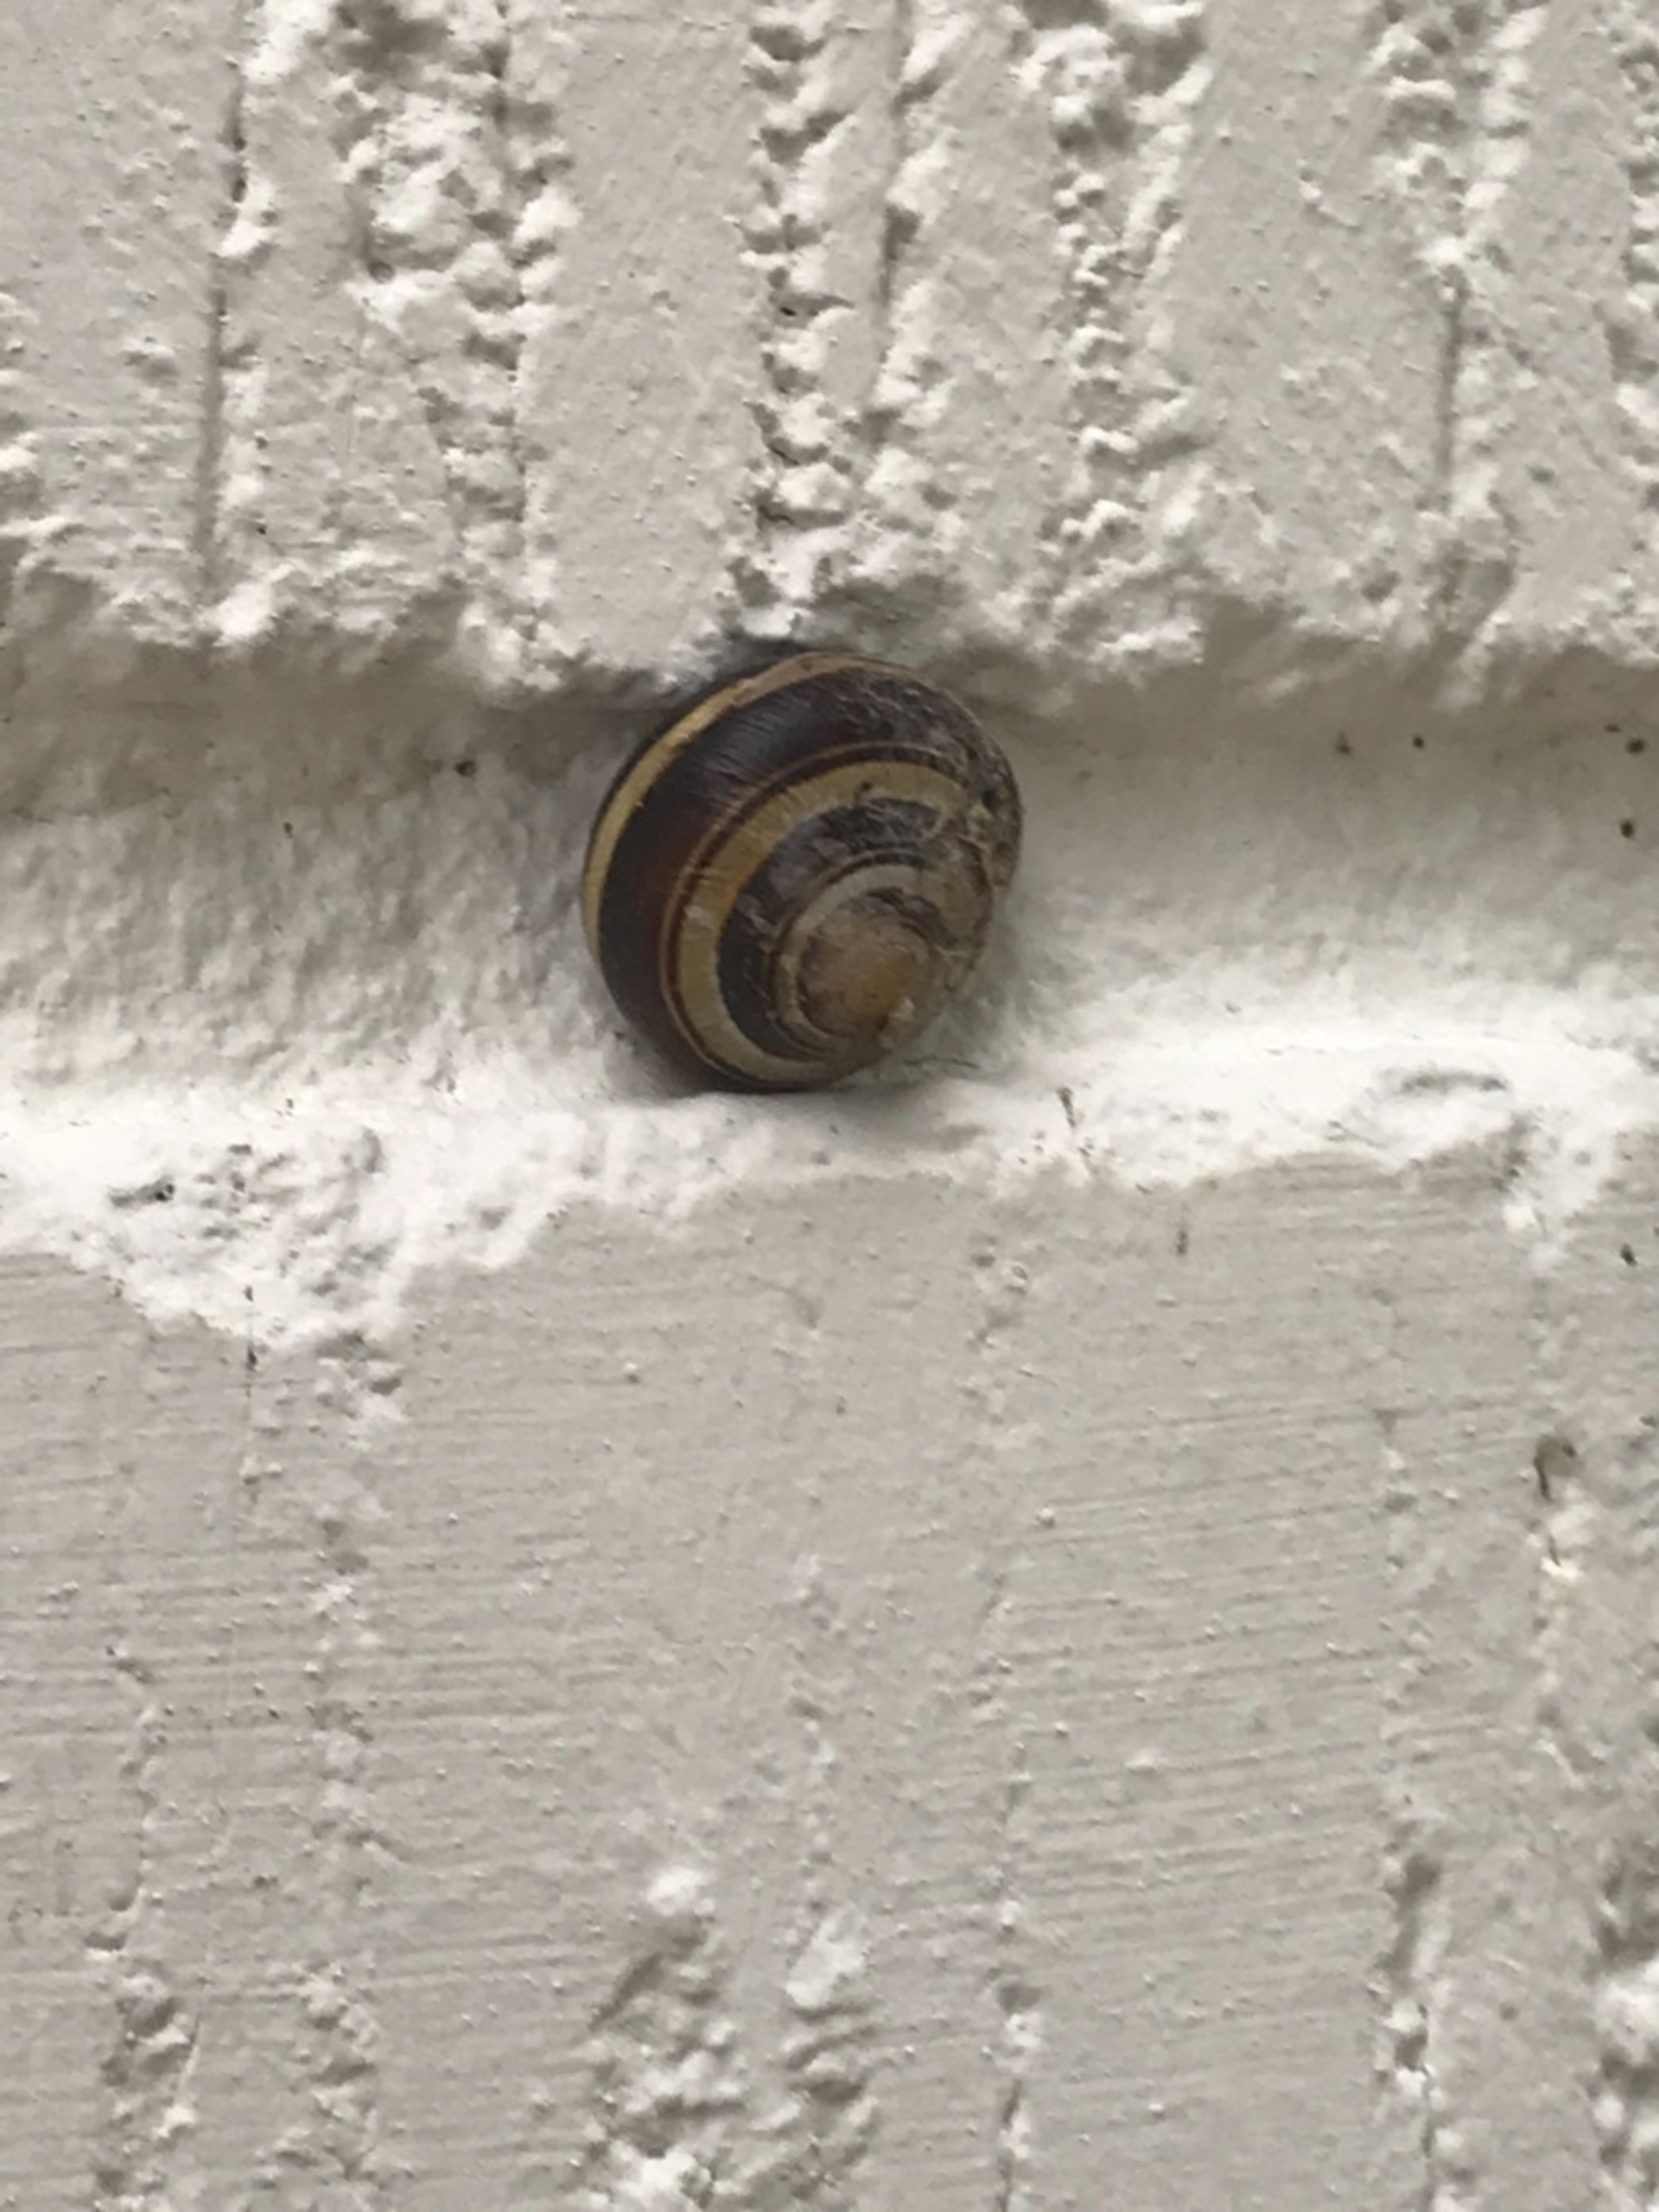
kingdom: Animalia
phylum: Mollusca
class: Gastropoda
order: Stylommatophora
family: Helicidae
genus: Cepaea
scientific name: Cepaea nemoralis
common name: Lundsnegl
